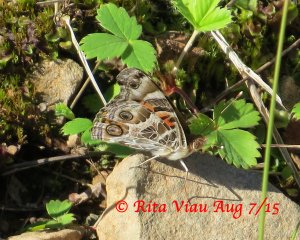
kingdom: Animalia
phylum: Arthropoda
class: Insecta
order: Lepidoptera
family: Nymphalidae
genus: Vanessa
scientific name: Vanessa virginiensis
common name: American Lady
